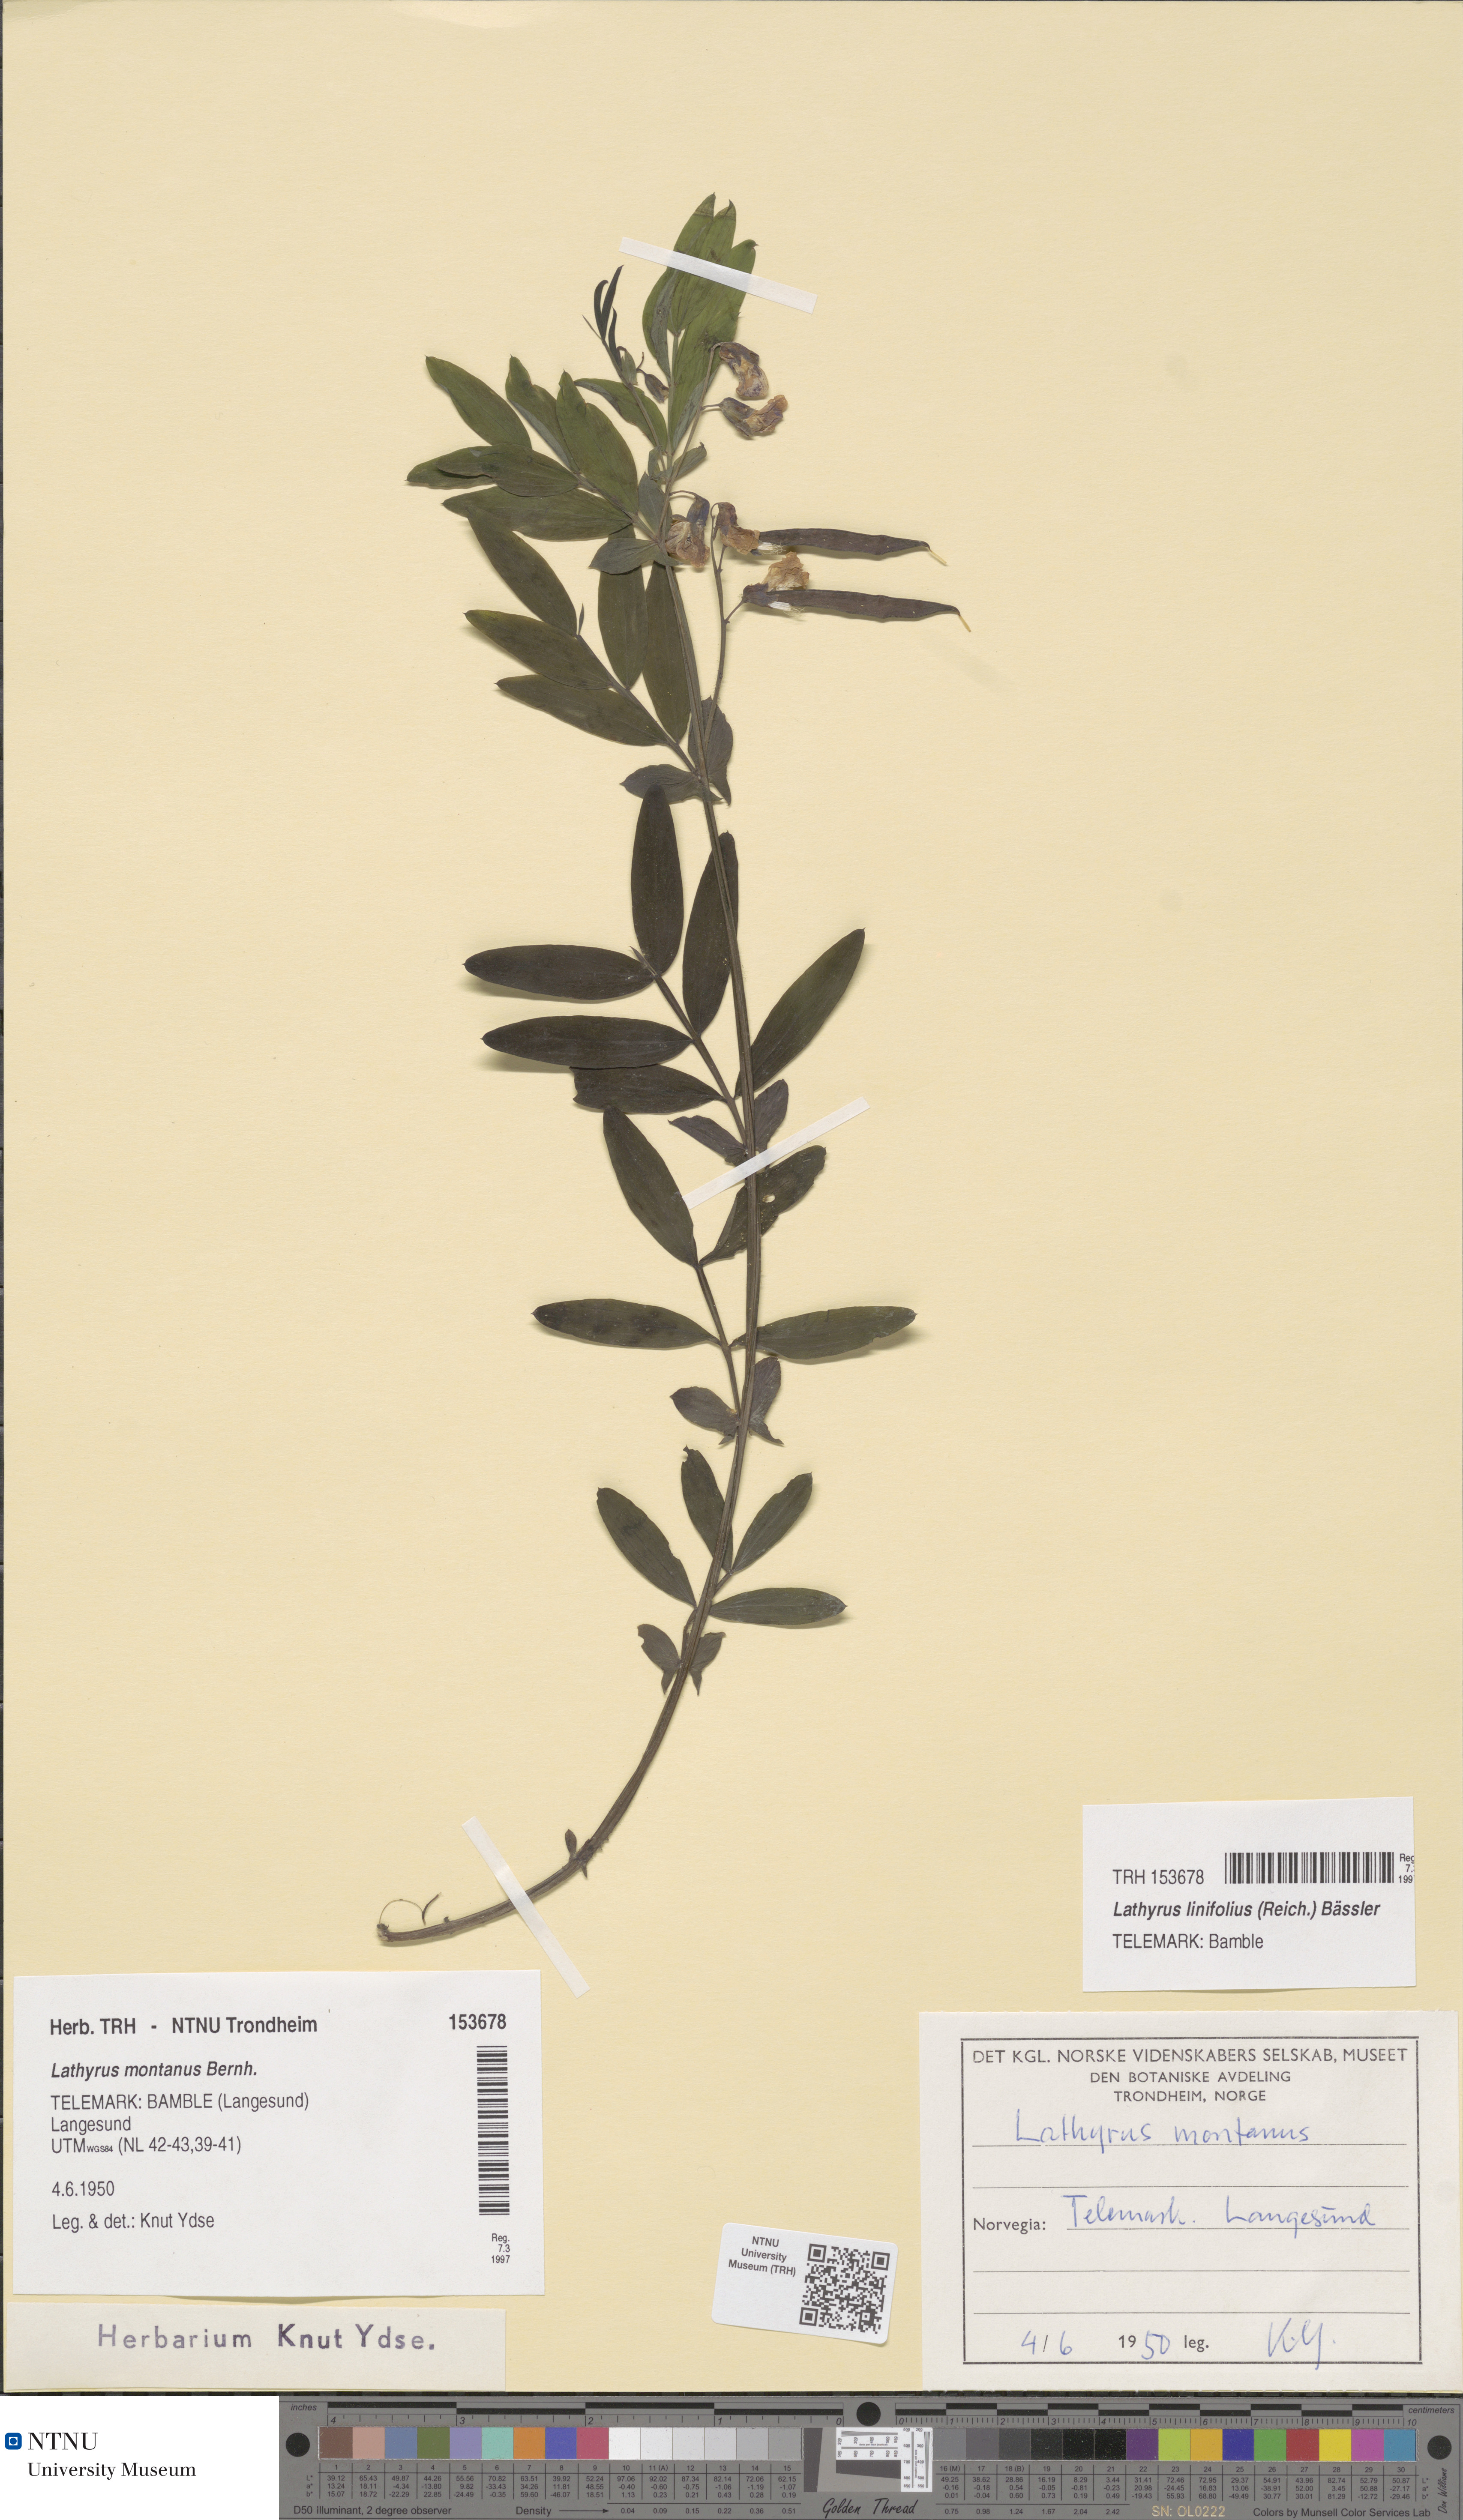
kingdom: Plantae
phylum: Tracheophyta
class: Magnoliopsida
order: Fabales
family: Fabaceae
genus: Lathyrus
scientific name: Lathyrus linifolius
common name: Bitter-vetch
